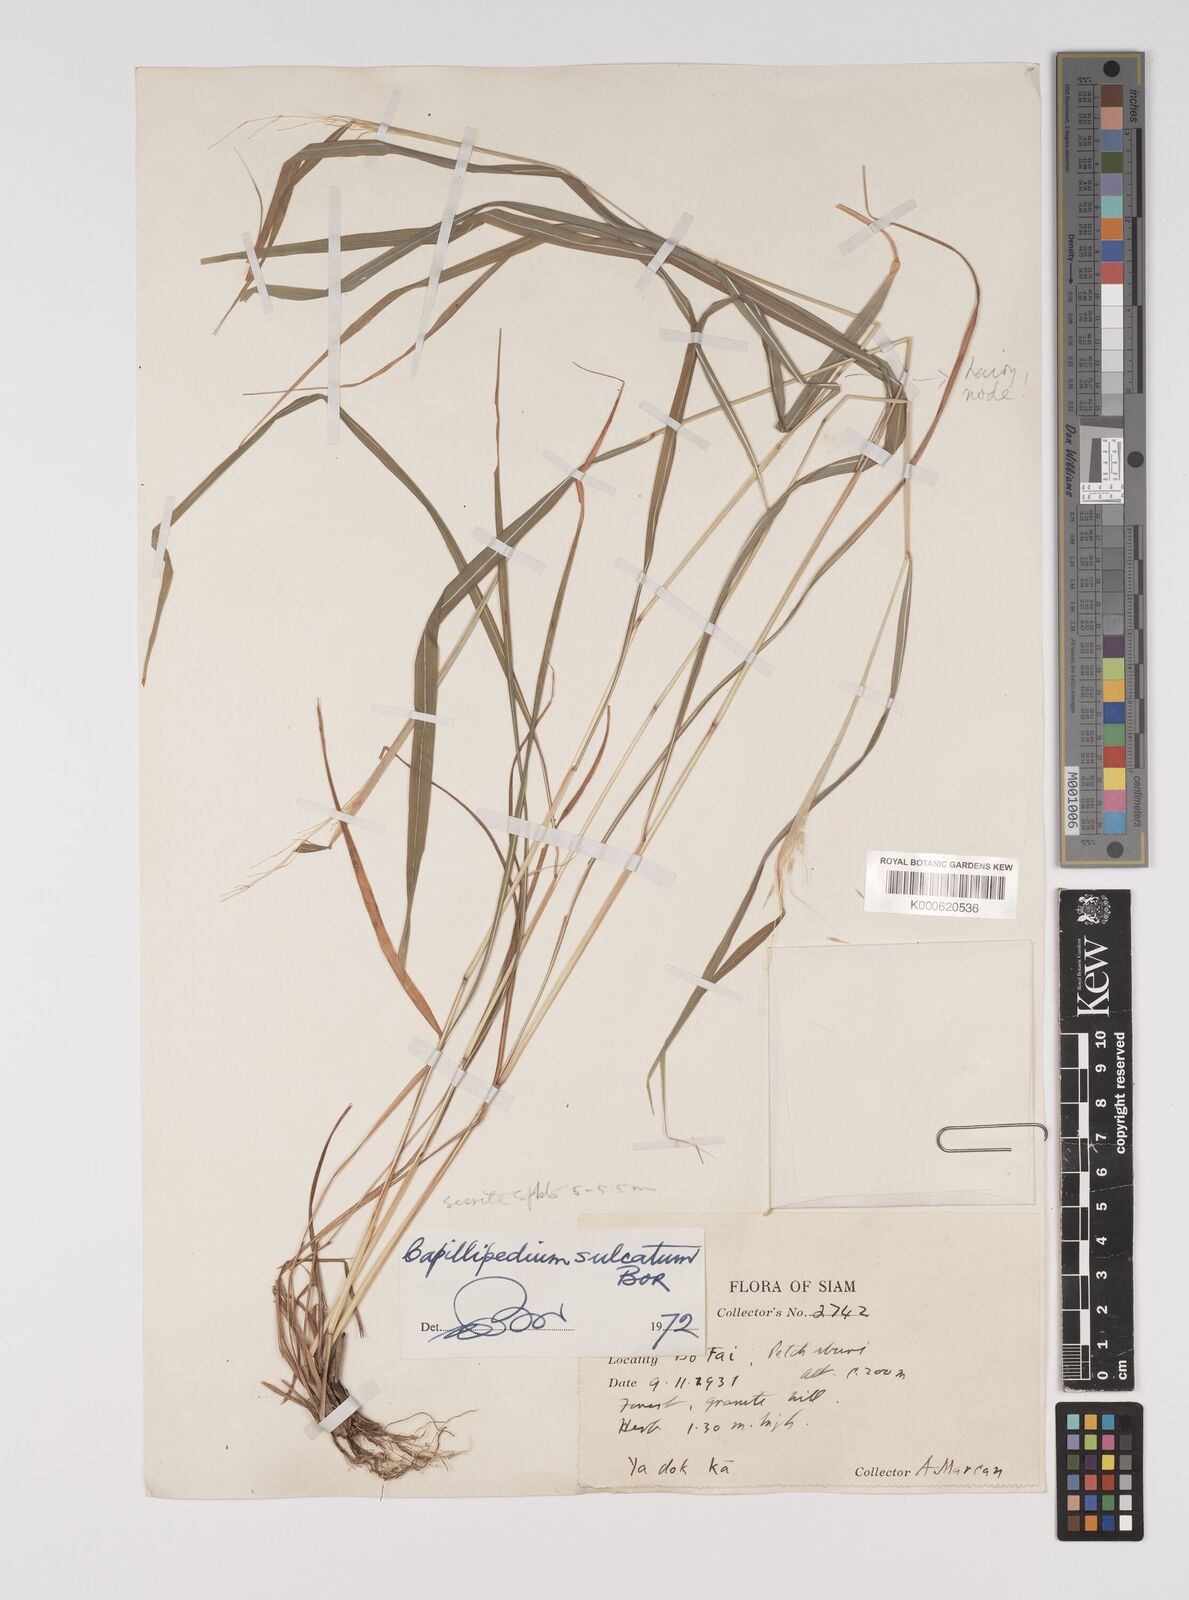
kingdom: Plantae
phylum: Tracheophyta
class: Liliopsida
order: Poales
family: Poaceae
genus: Capillipedium
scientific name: Capillipedium sulcatum
